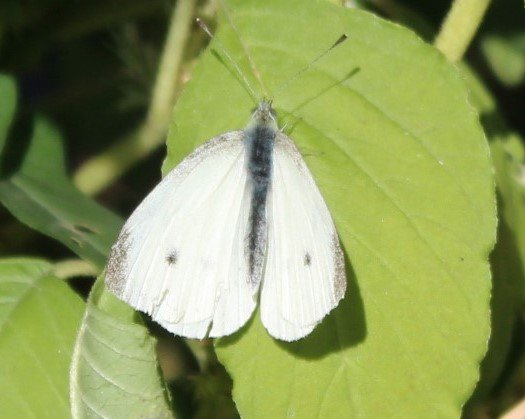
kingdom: Animalia
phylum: Arthropoda
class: Insecta
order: Lepidoptera
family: Pieridae
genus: Pieris
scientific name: Pieris rapae
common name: Cabbage White
